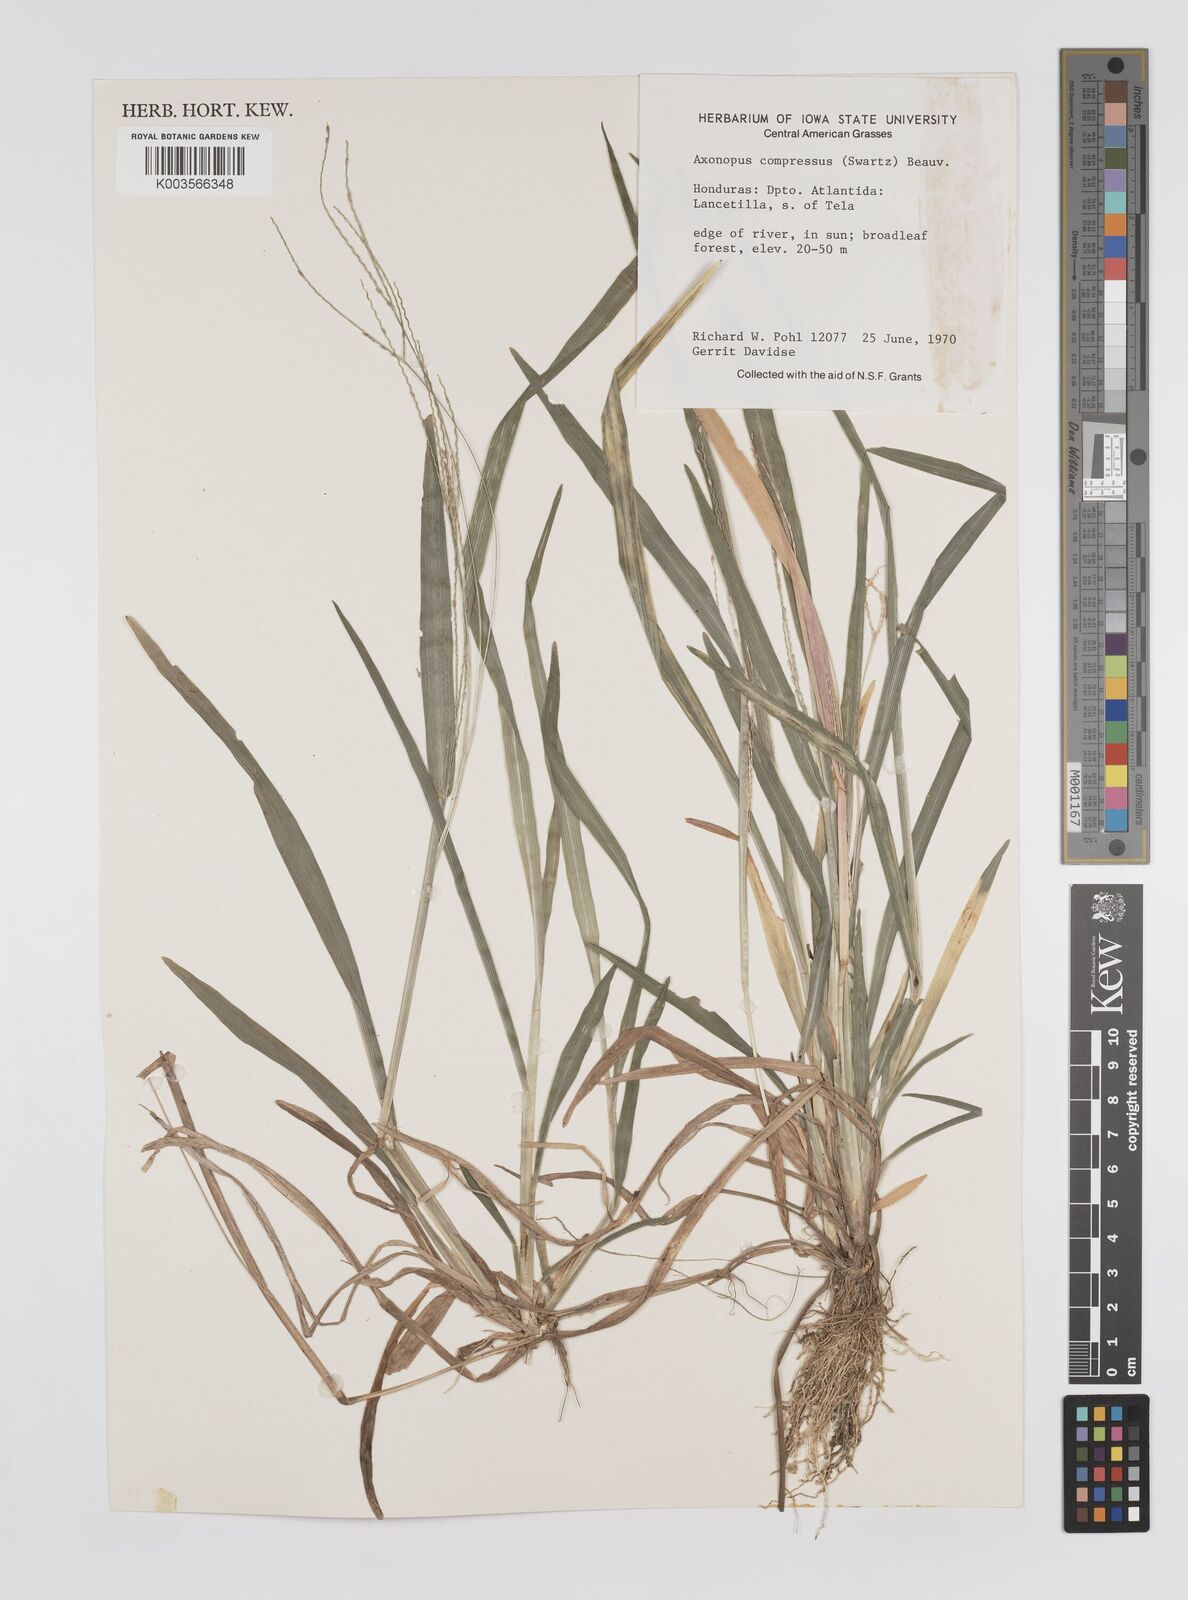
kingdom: Plantae
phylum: Tracheophyta
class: Liliopsida
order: Poales
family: Poaceae
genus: Axonopus
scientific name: Axonopus compressus
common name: American carpet grass
